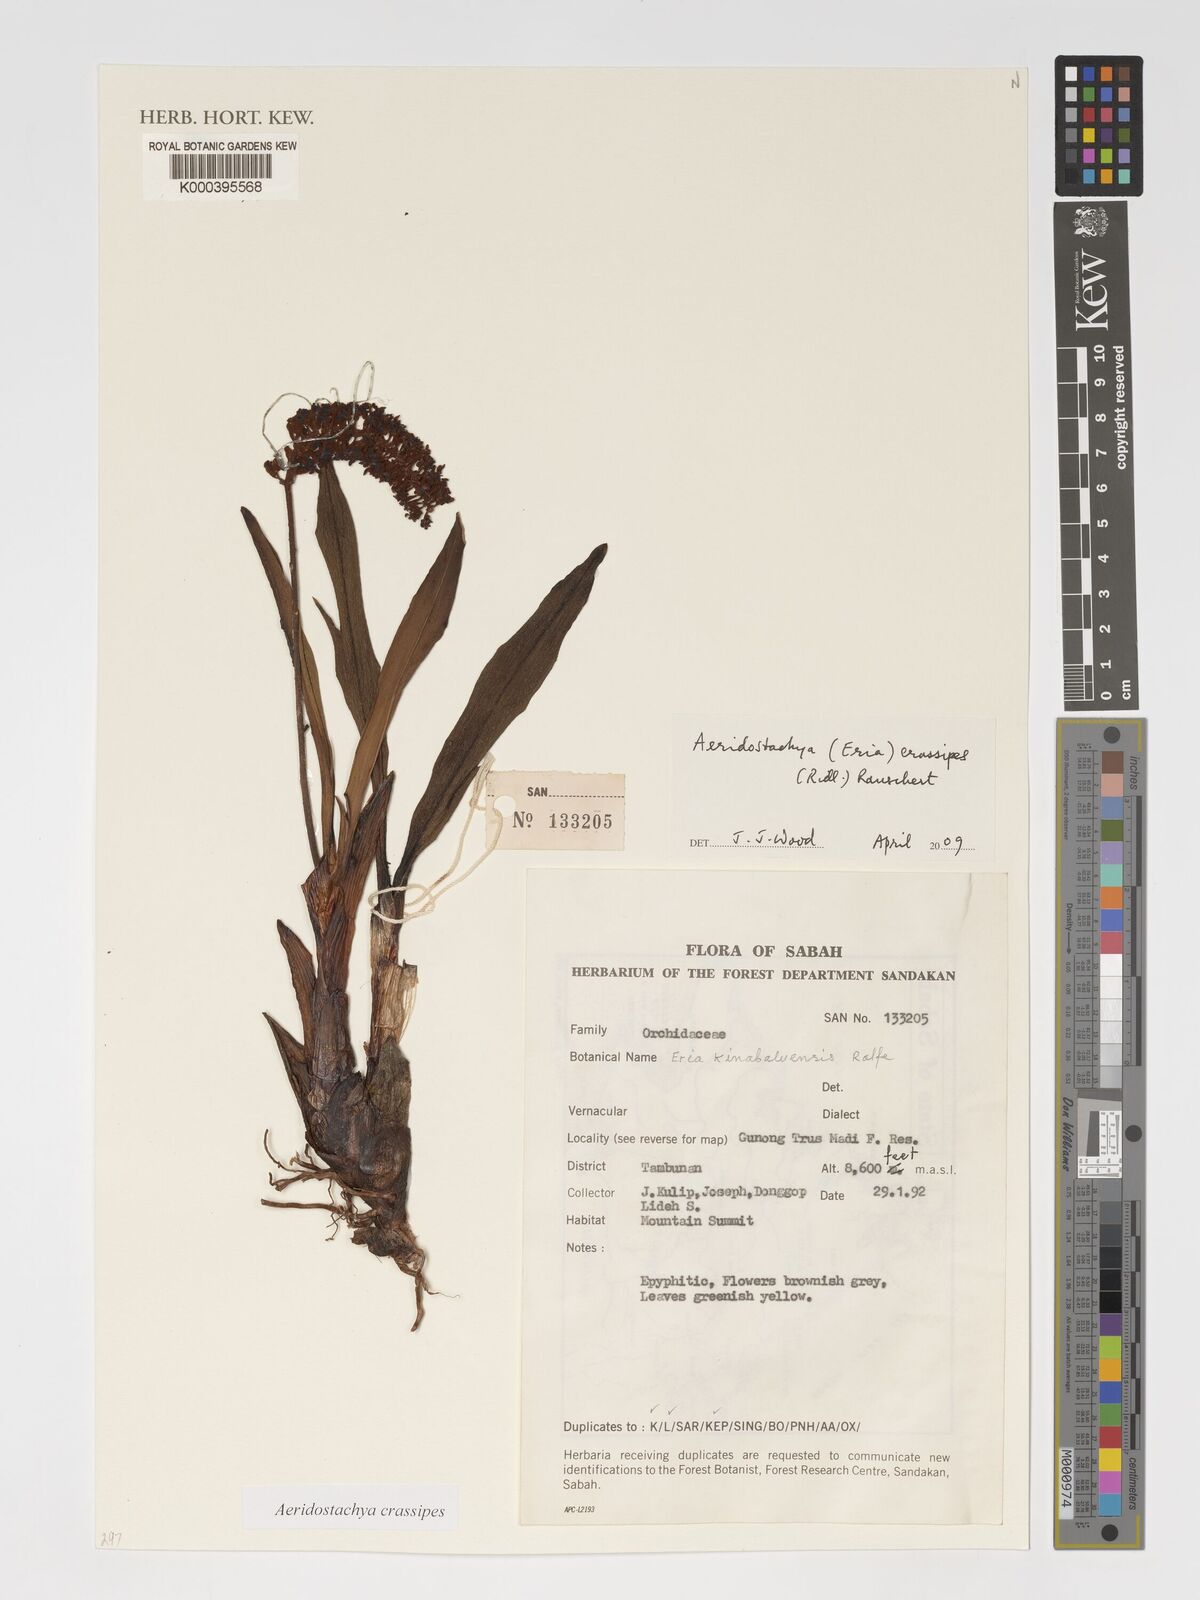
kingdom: Plantae
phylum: Tracheophyta
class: Liliopsida
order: Asparagales
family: Orchidaceae
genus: Aeridostachya
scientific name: Aeridostachya crassipes
